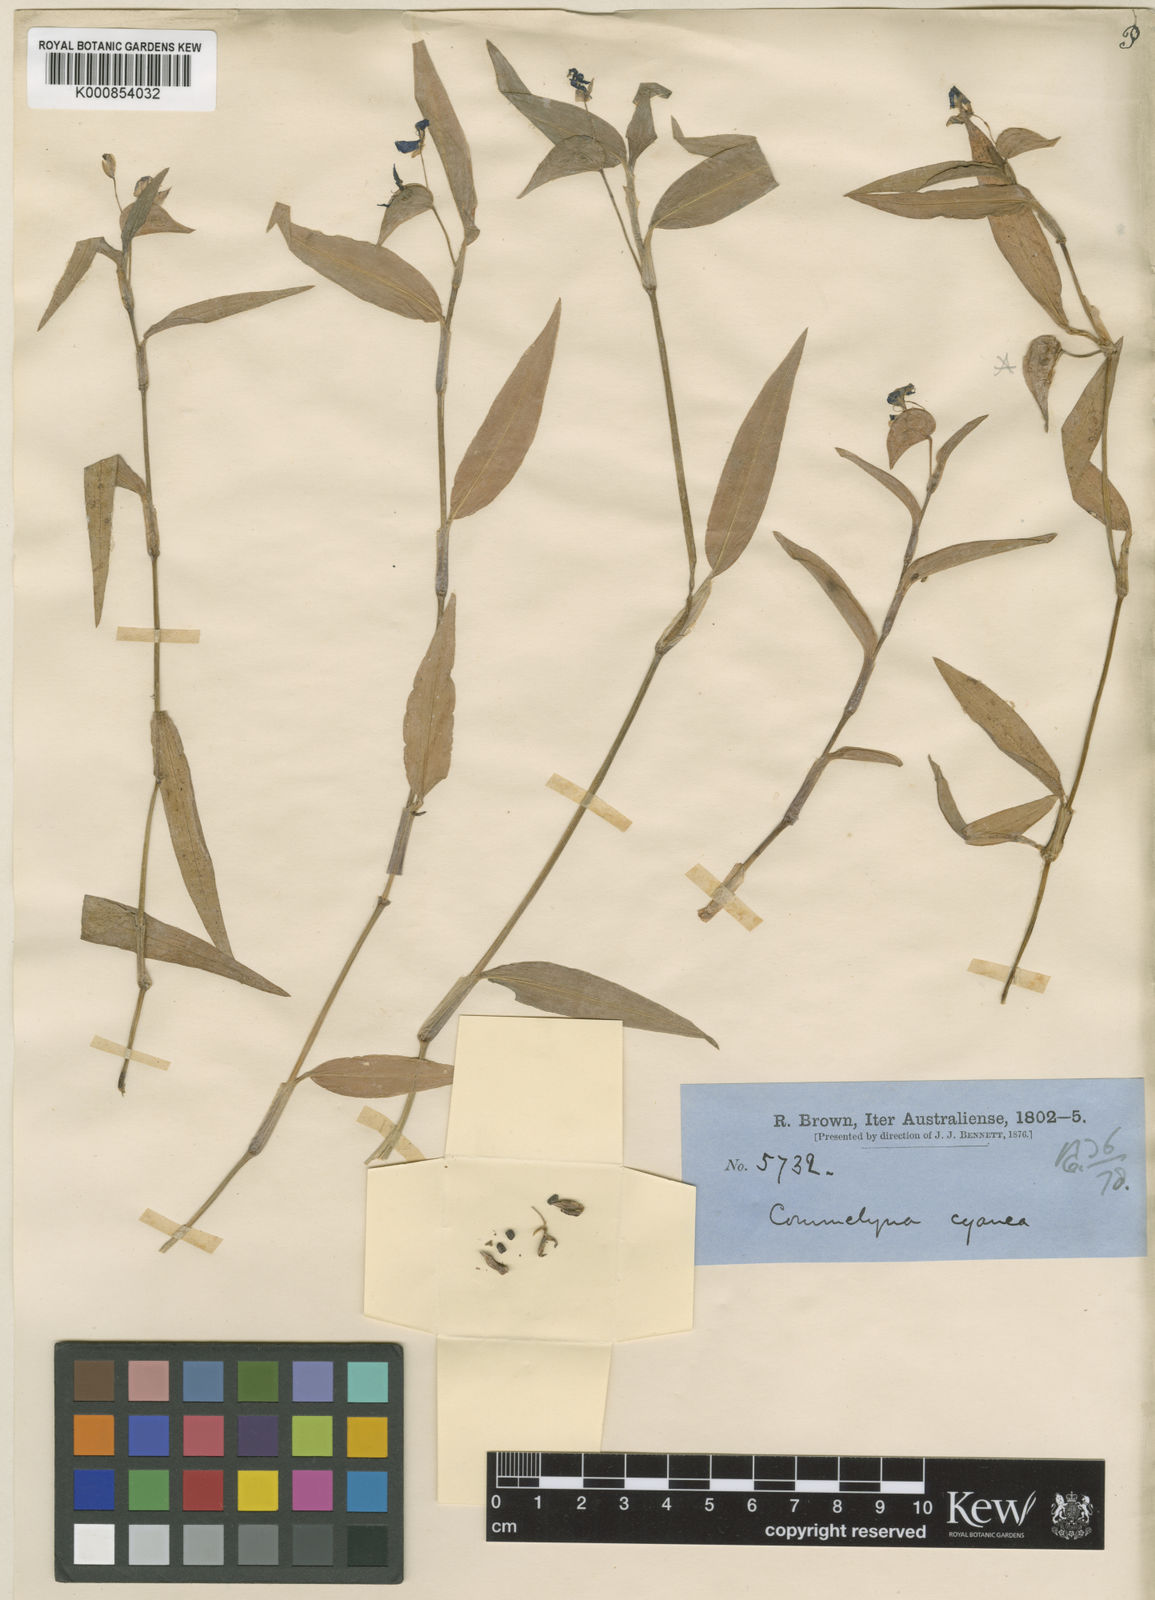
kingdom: Plantae
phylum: Tracheophyta
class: Liliopsida
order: Commelinales
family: Commelinaceae
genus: Commelina
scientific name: Commelina cyanea
